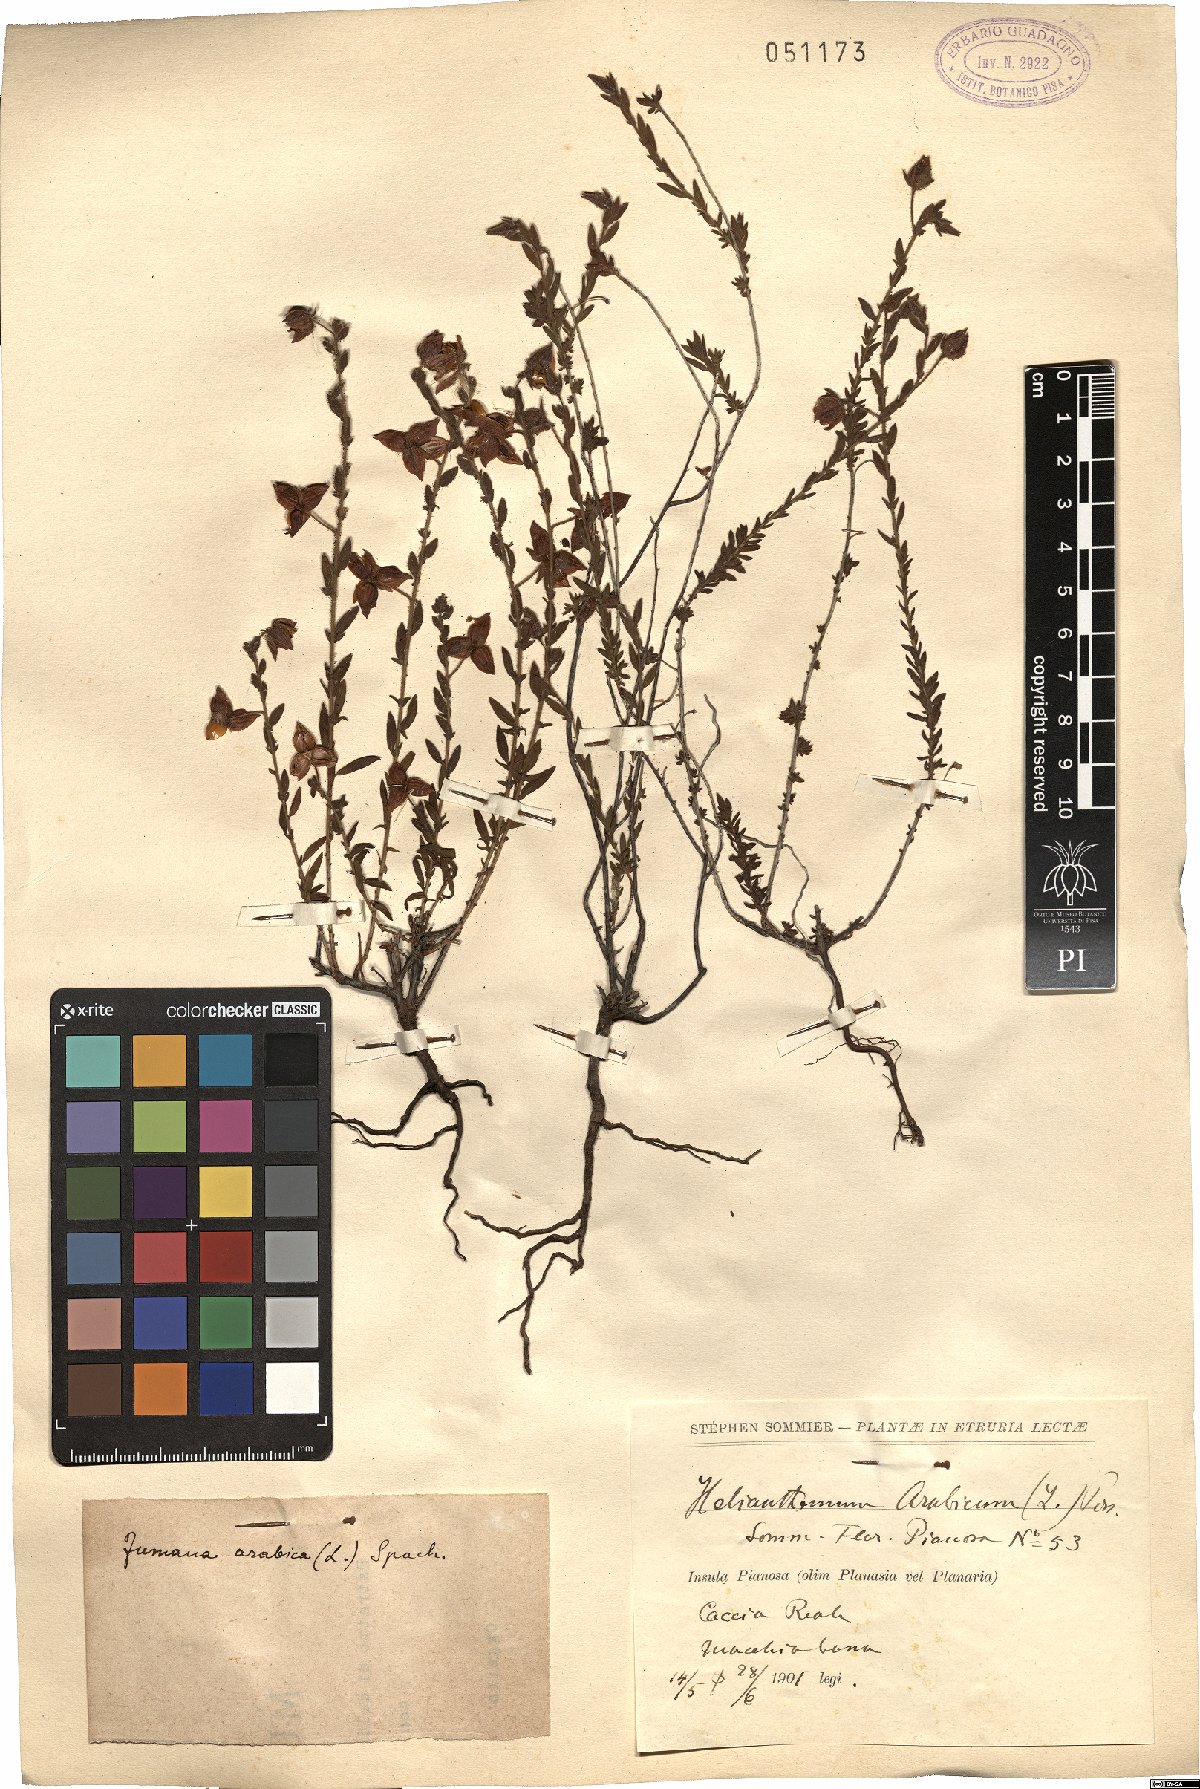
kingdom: Plantae
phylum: Tracheophyta
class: Magnoliopsida
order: Malvales
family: Cistaceae
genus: Fumana
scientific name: Fumana arabica
